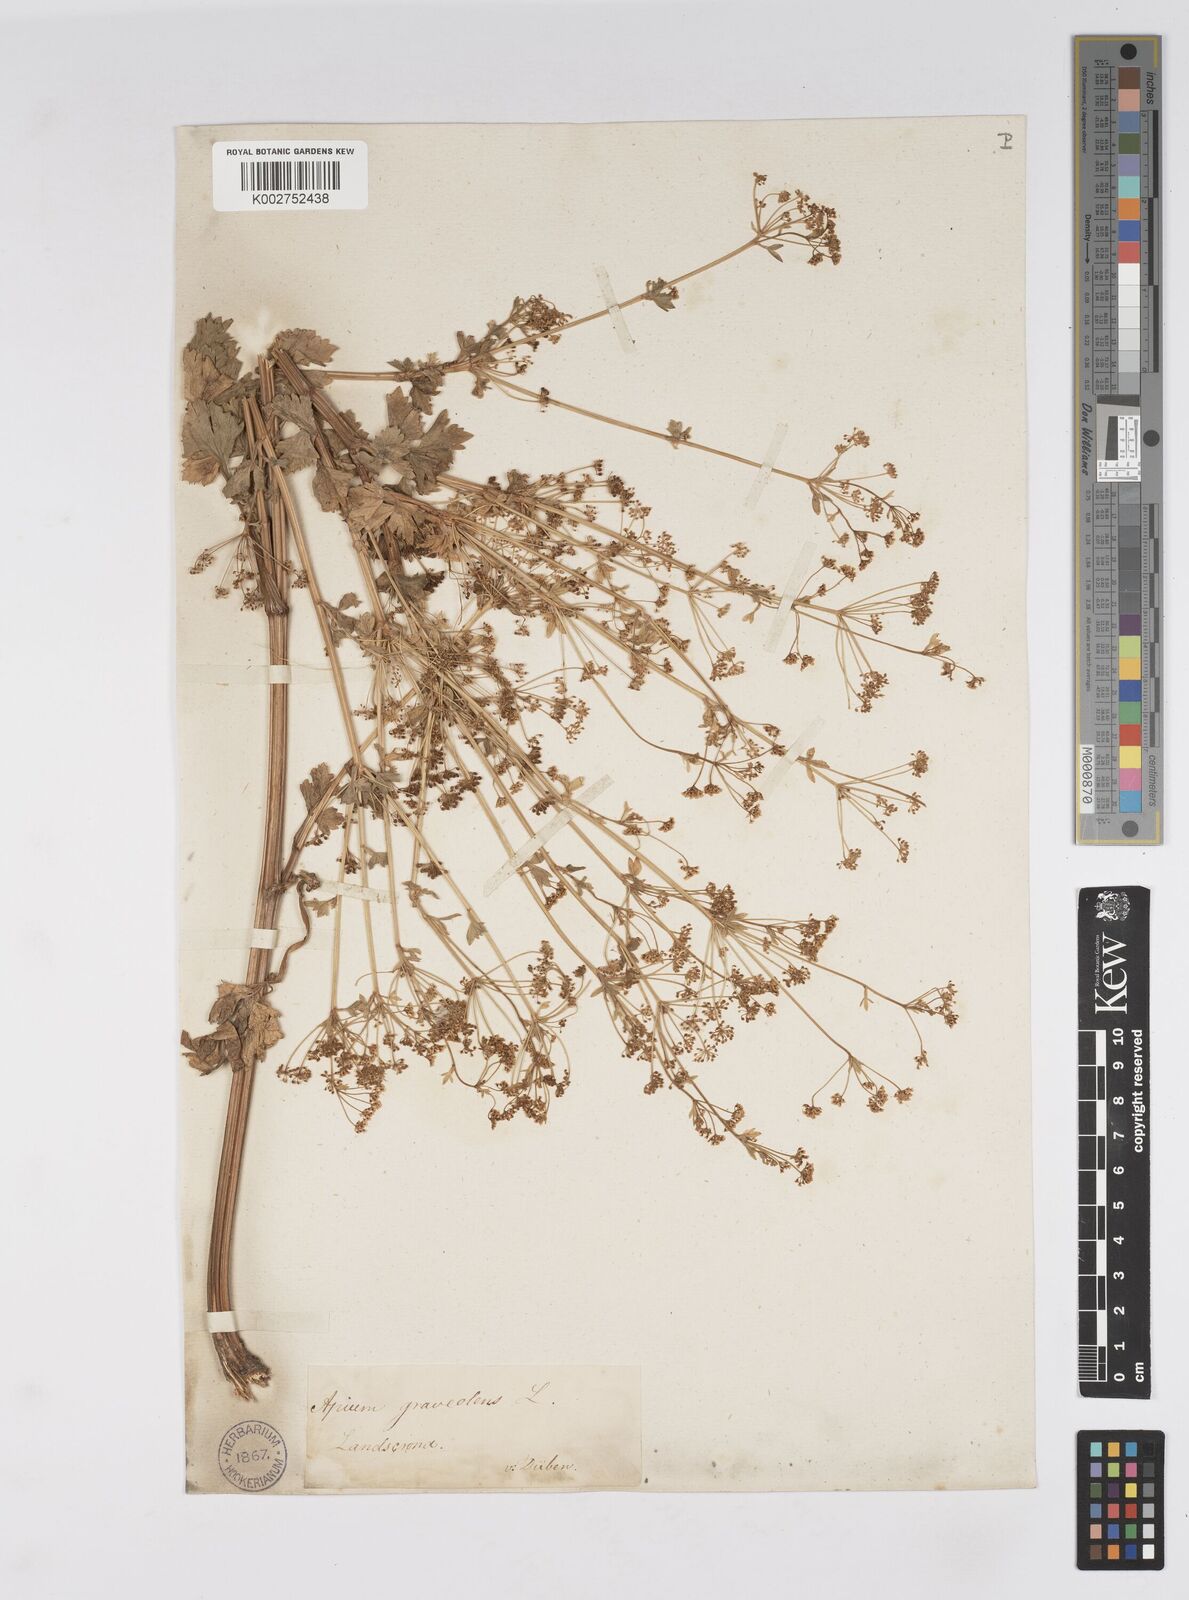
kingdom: Plantae
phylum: Tracheophyta
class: Magnoliopsida
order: Apiales
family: Apiaceae
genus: Apium
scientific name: Apium graveolens
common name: Wild celery
